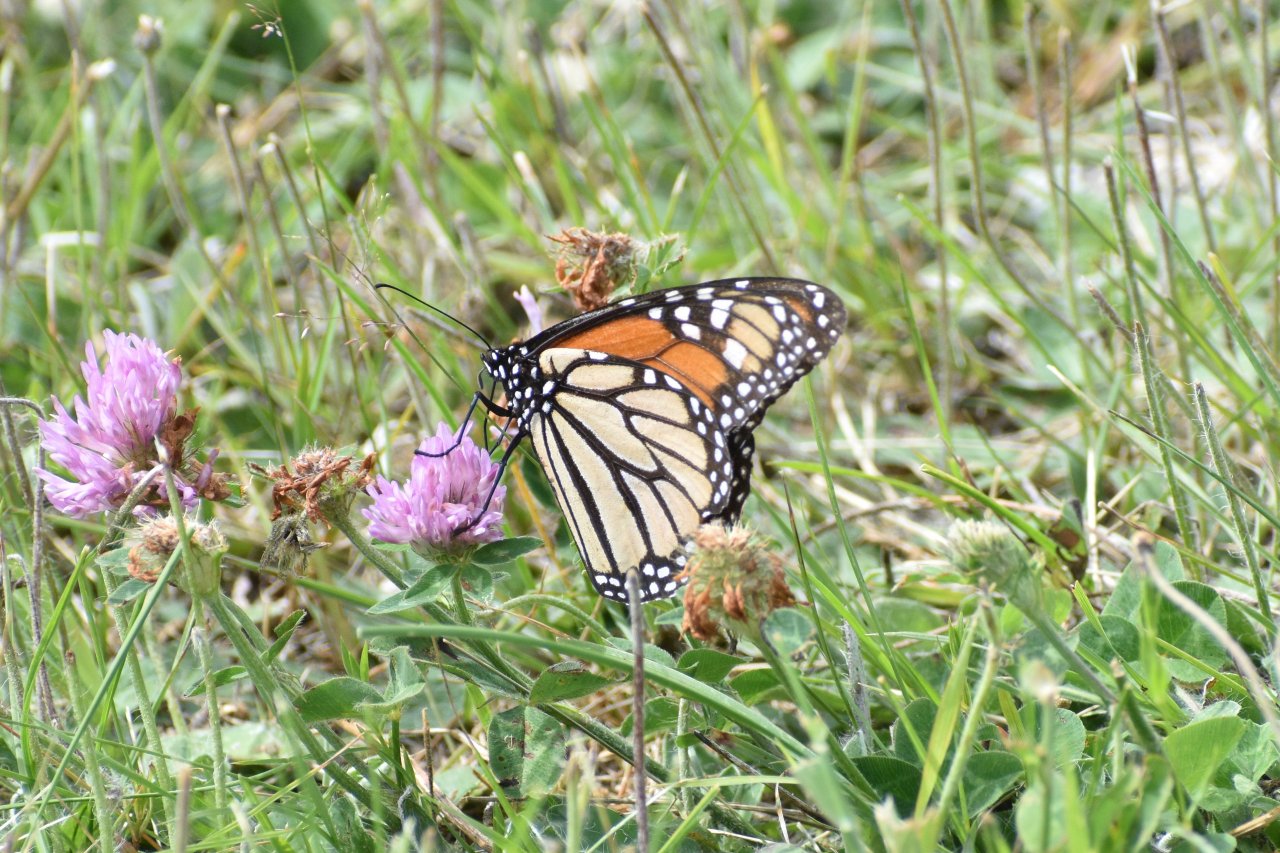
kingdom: Animalia
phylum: Arthropoda
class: Insecta
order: Lepidoptera
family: Nymphalidae
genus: Danaus
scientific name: Danaus plexippus
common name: Monarch
